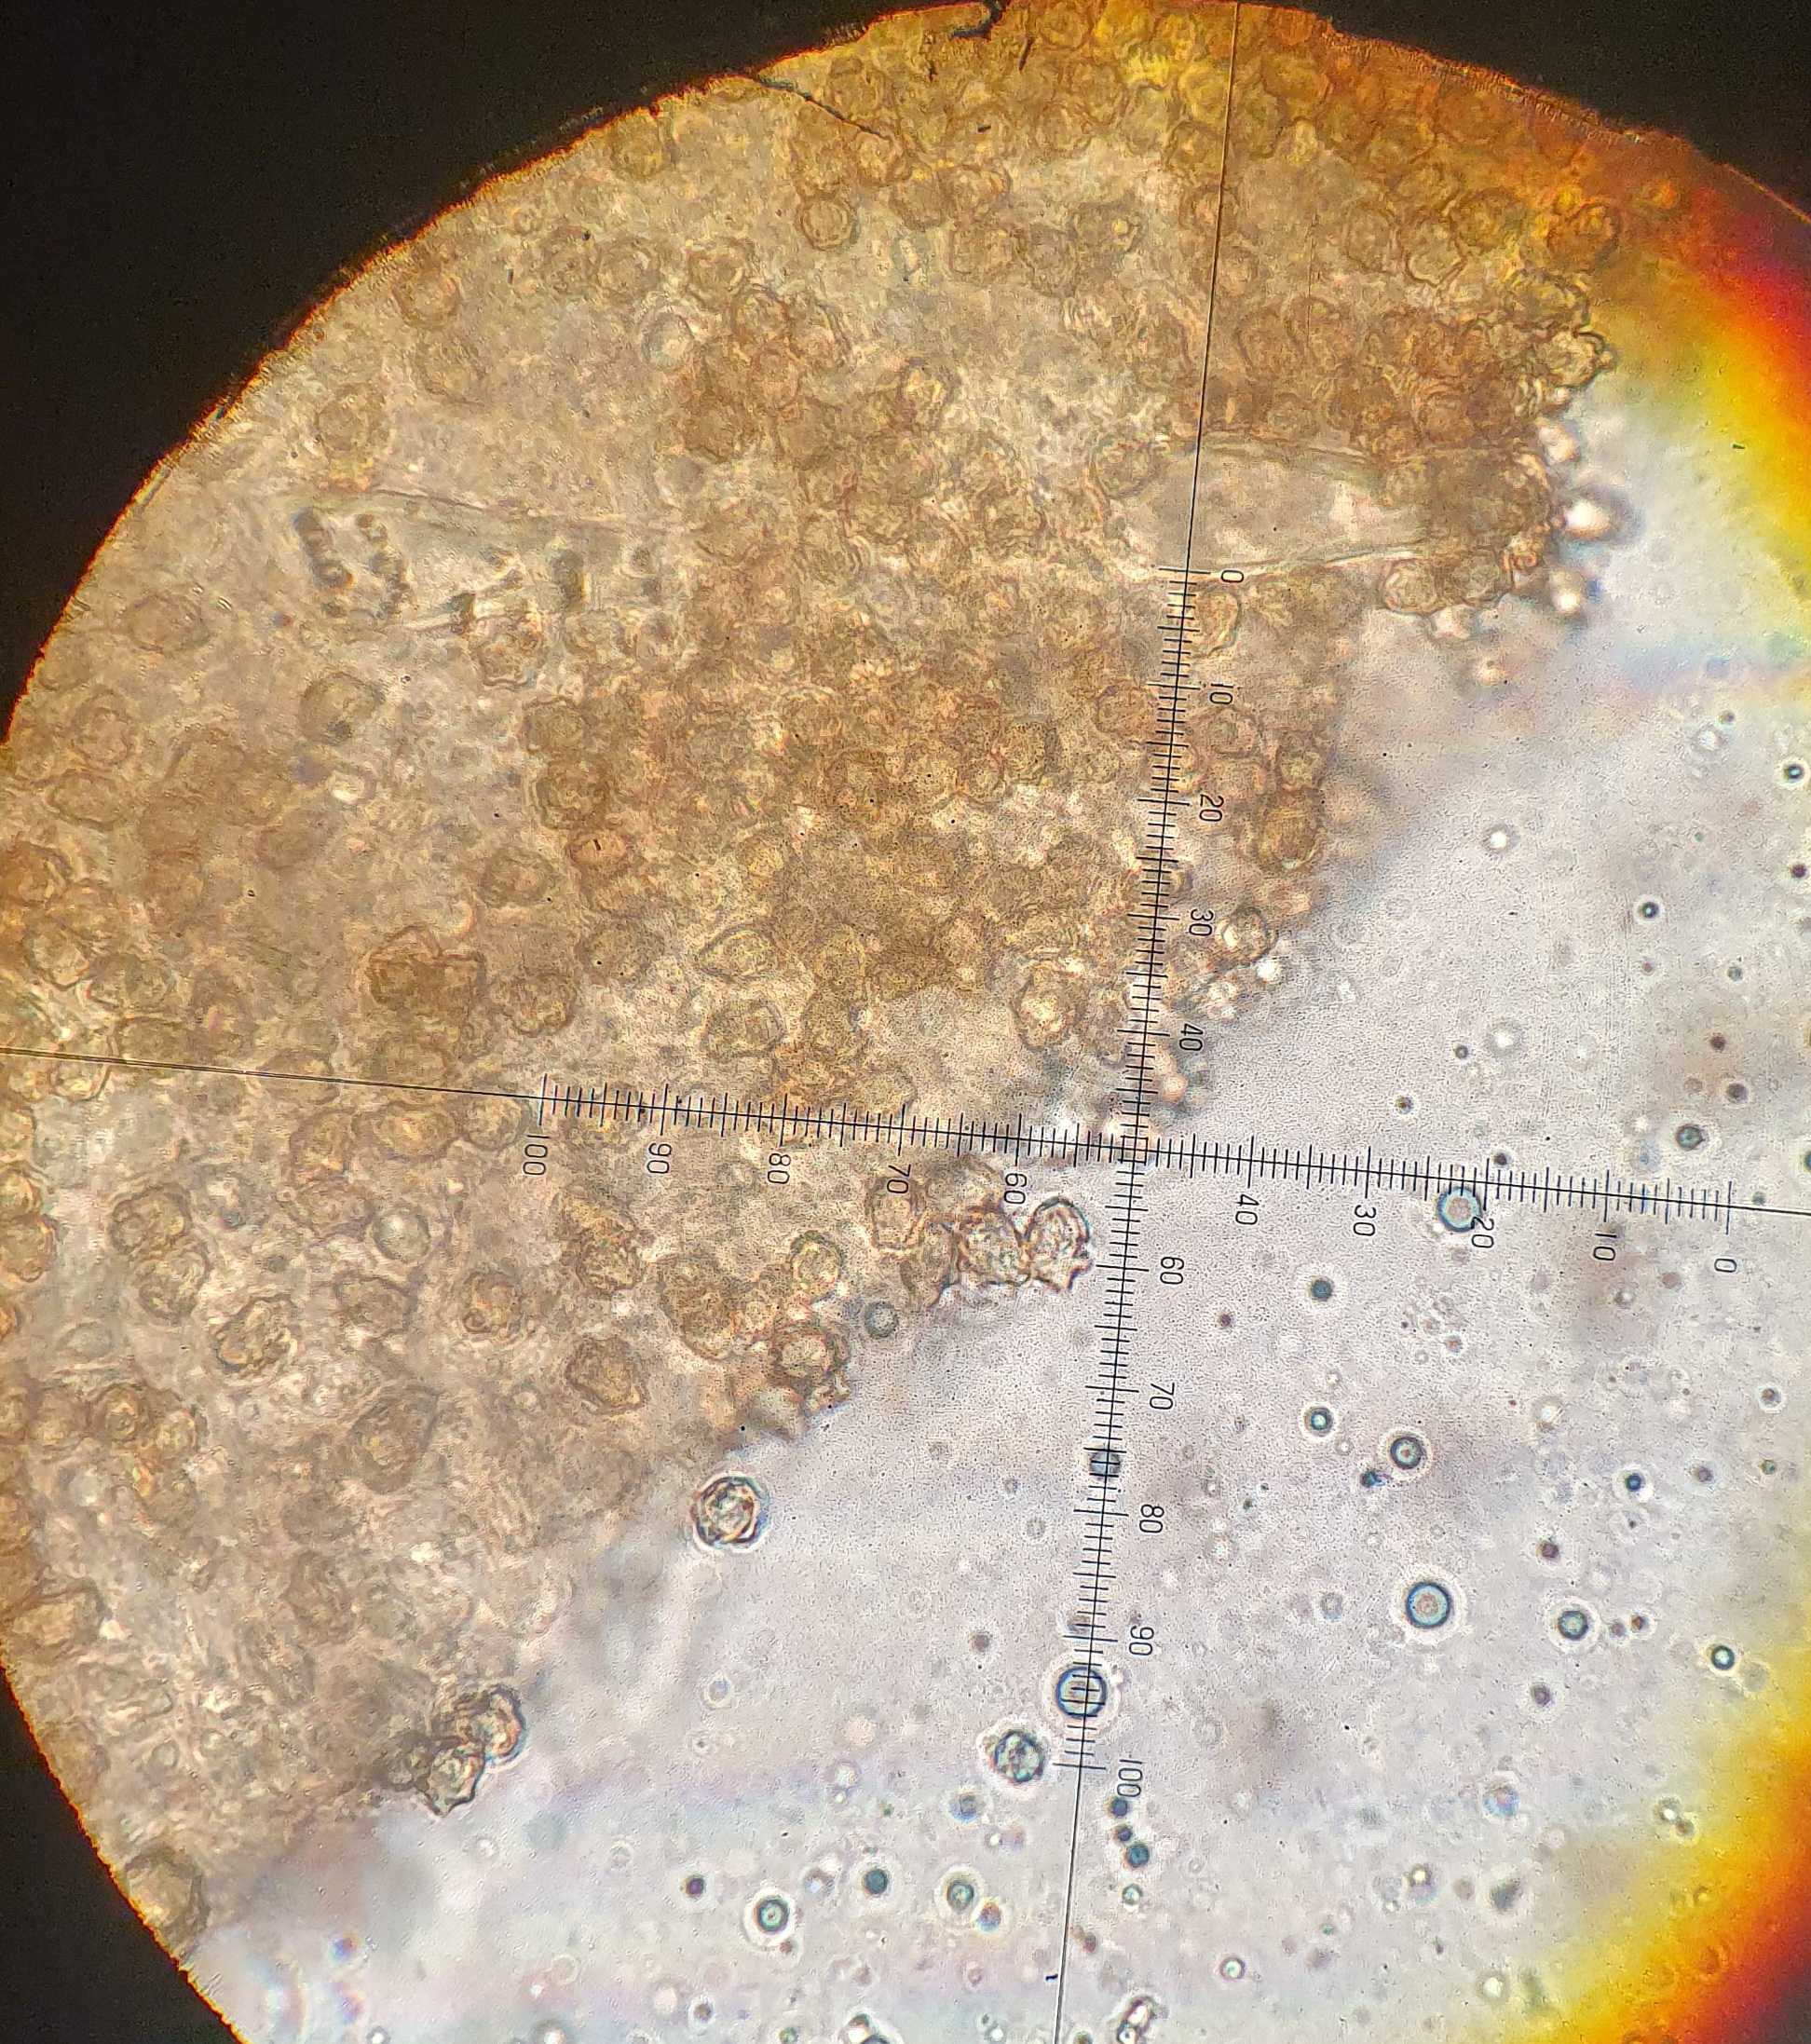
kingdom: Fungi
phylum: Basidiomycota
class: Agaricomycetes
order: Agaricales
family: Inocybaceae
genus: Inocybe
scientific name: Inocybe petiginosa
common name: liden trævlhat
